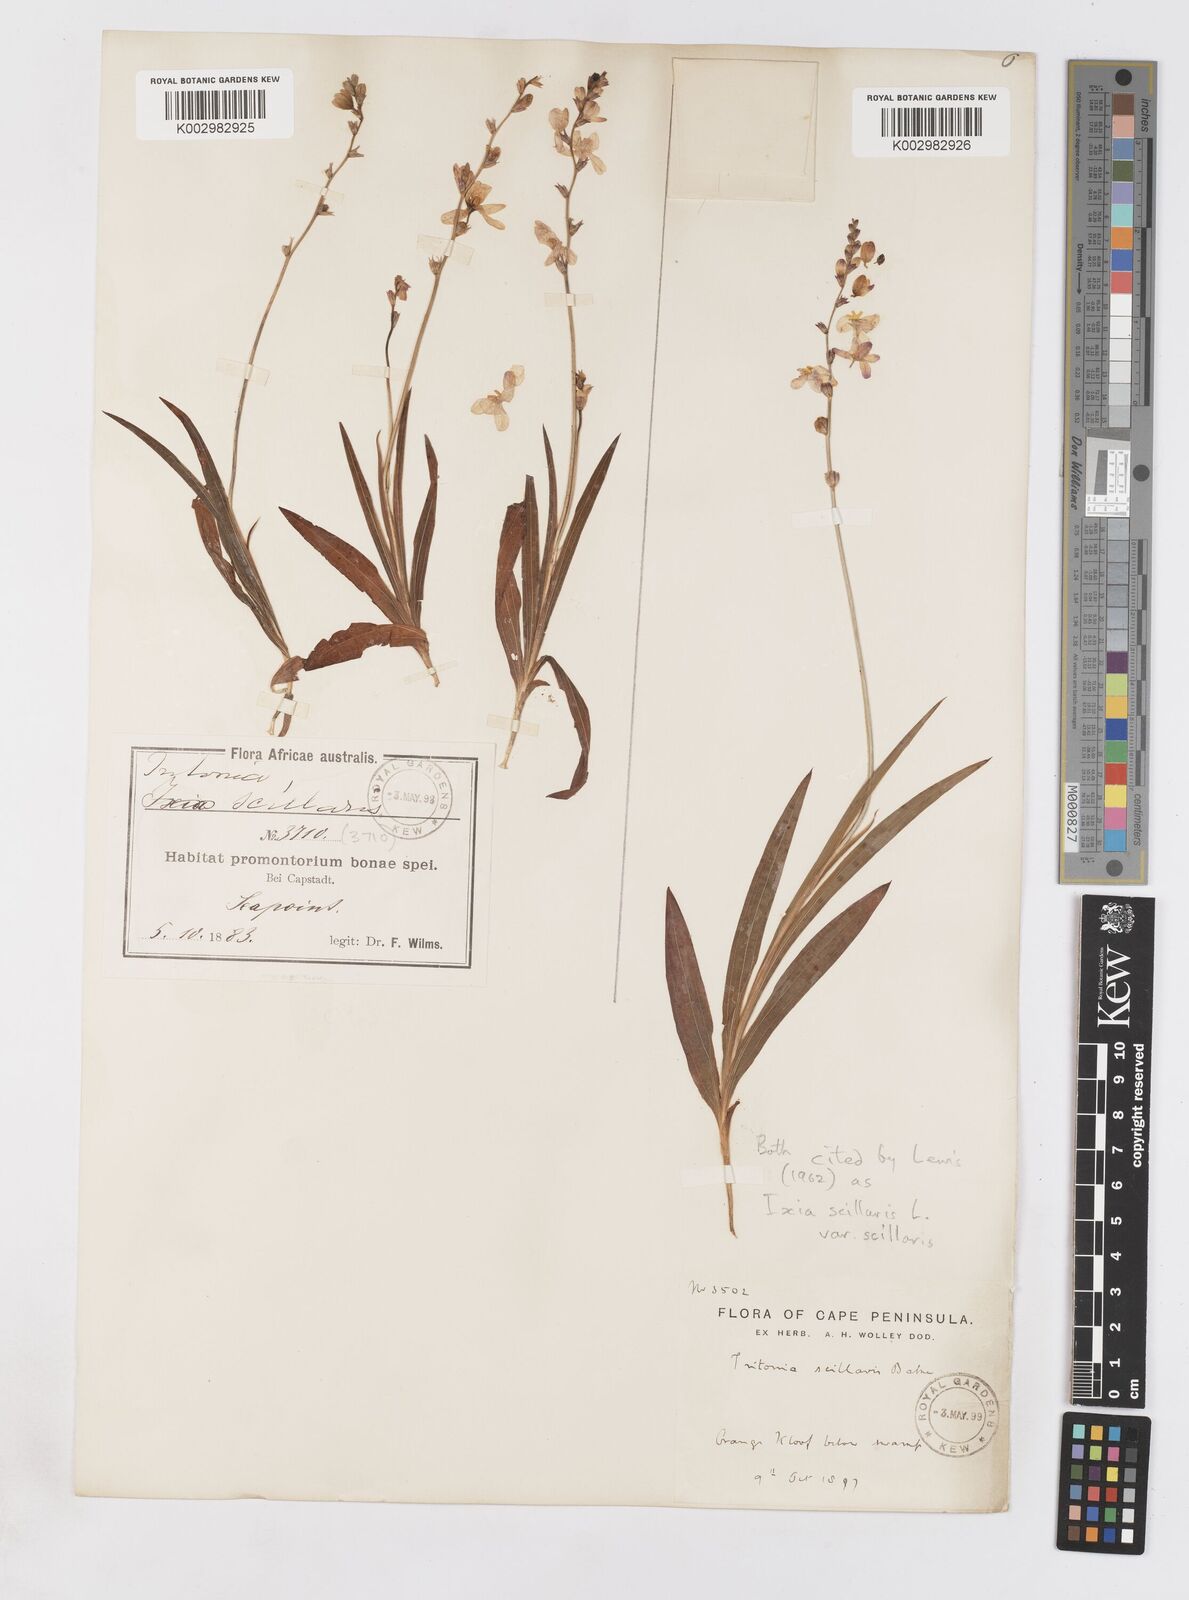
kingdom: Plantae
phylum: Tracheophyta
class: Liliopsida
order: Asparagales
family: Iridaceae
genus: Ixia
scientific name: Ixia scillaris
